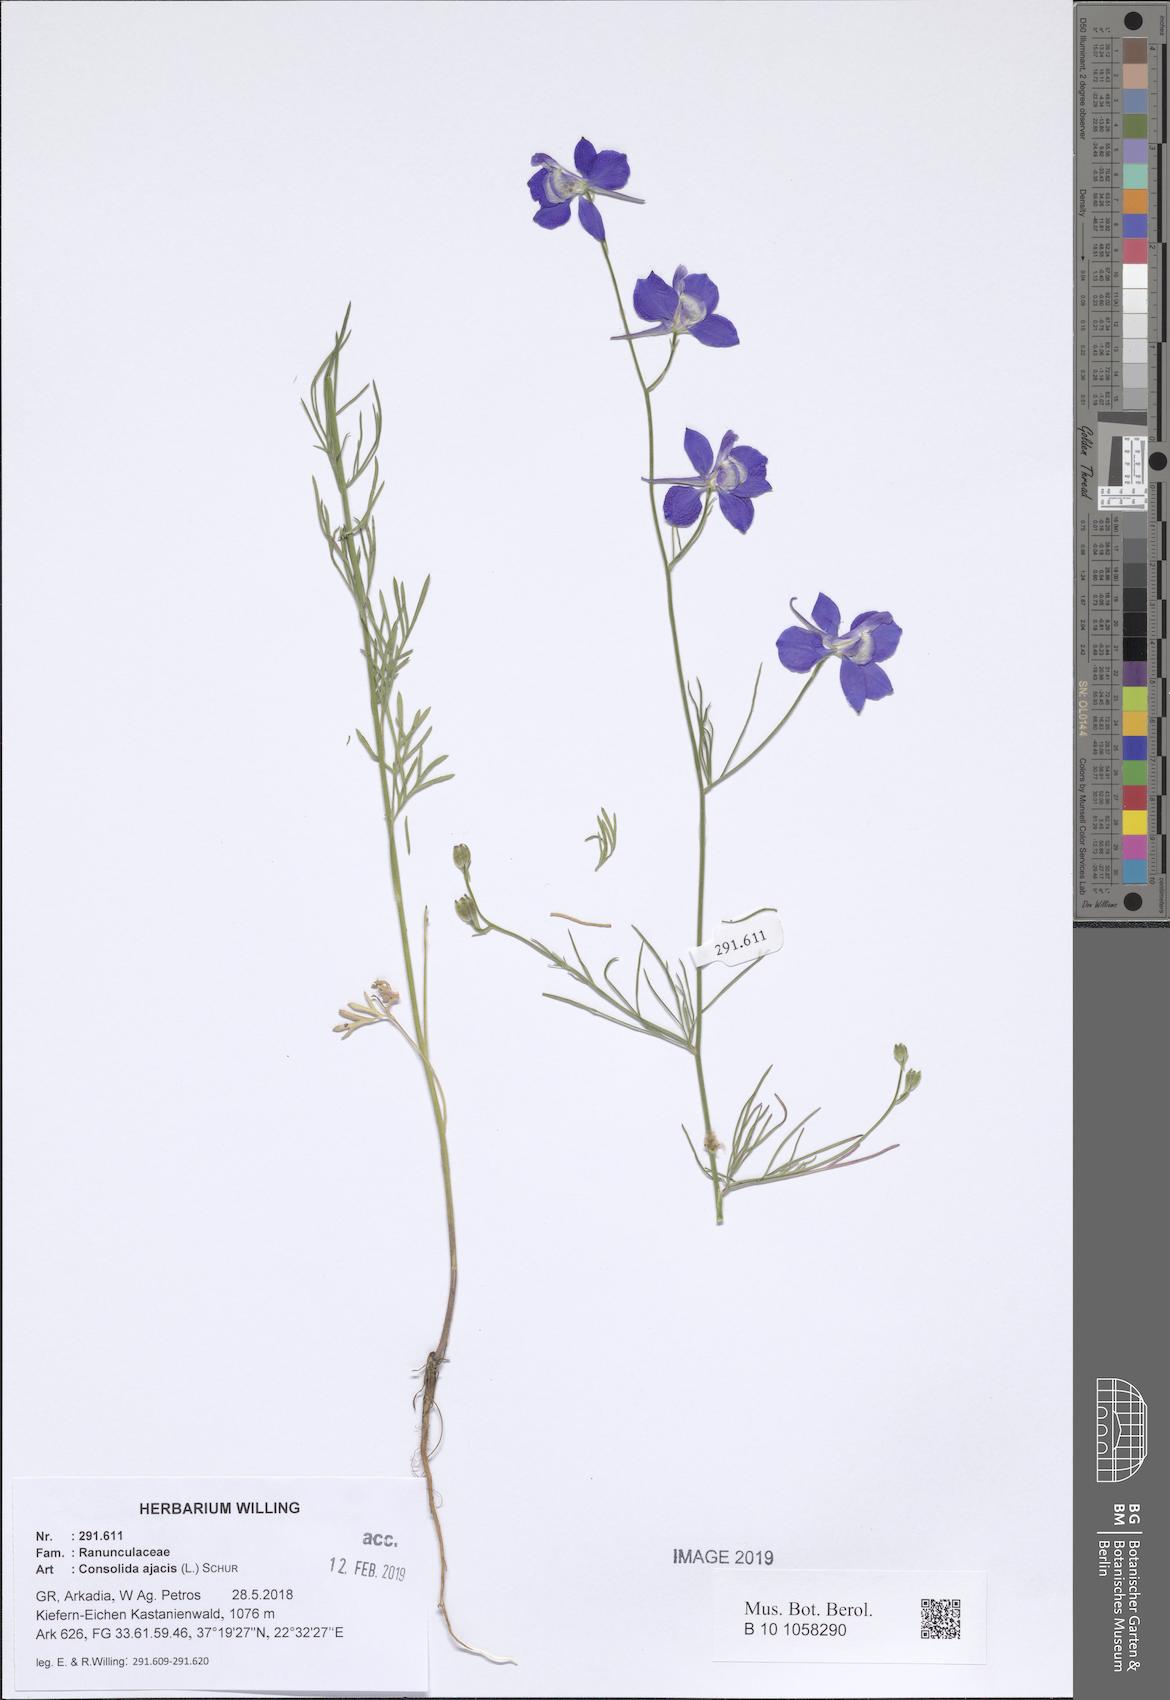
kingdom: Plantae
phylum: Tracheophyta
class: Magnoliopsida
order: Ranunculales
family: Ranunculaceae
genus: Delphinium
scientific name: Delphinium ajacis
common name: Doubtful knight's-spur
